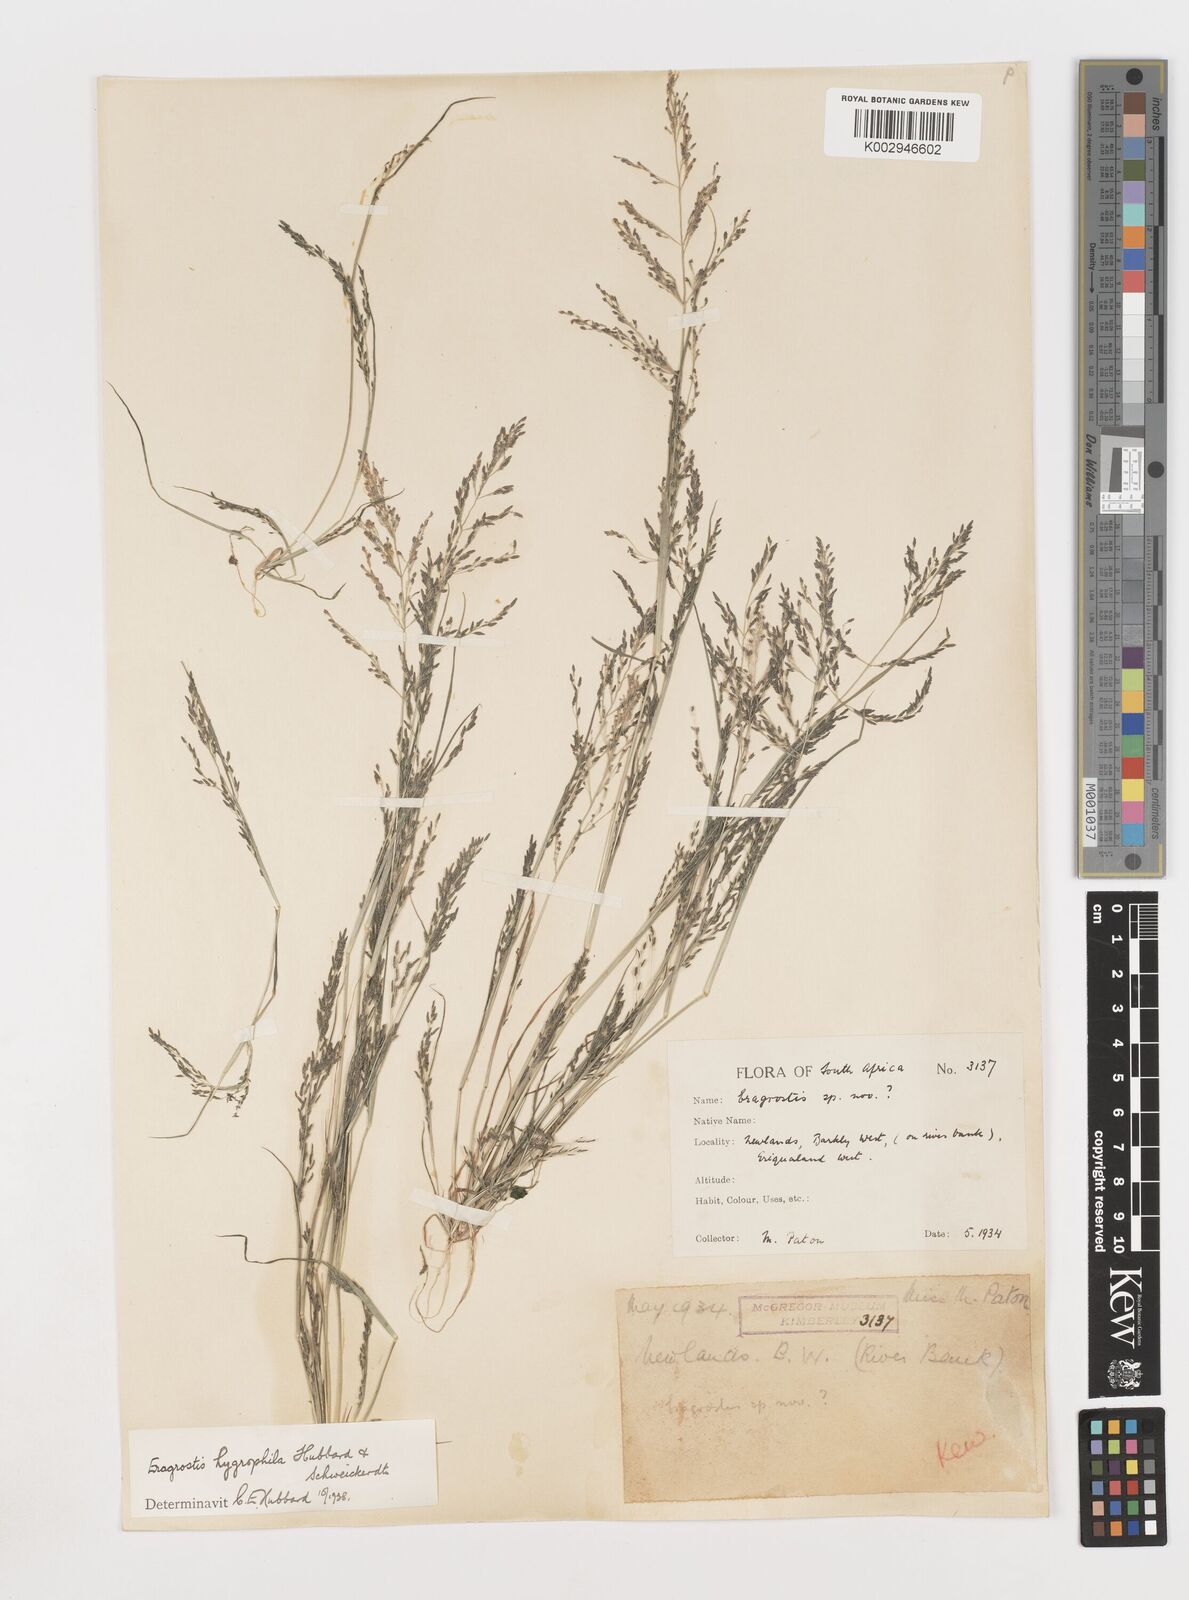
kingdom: Plantae
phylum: Tracheophyta
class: Liliopsida
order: Poales
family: Poaceae
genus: Eragrostis
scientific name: Eragrostis homomalla
